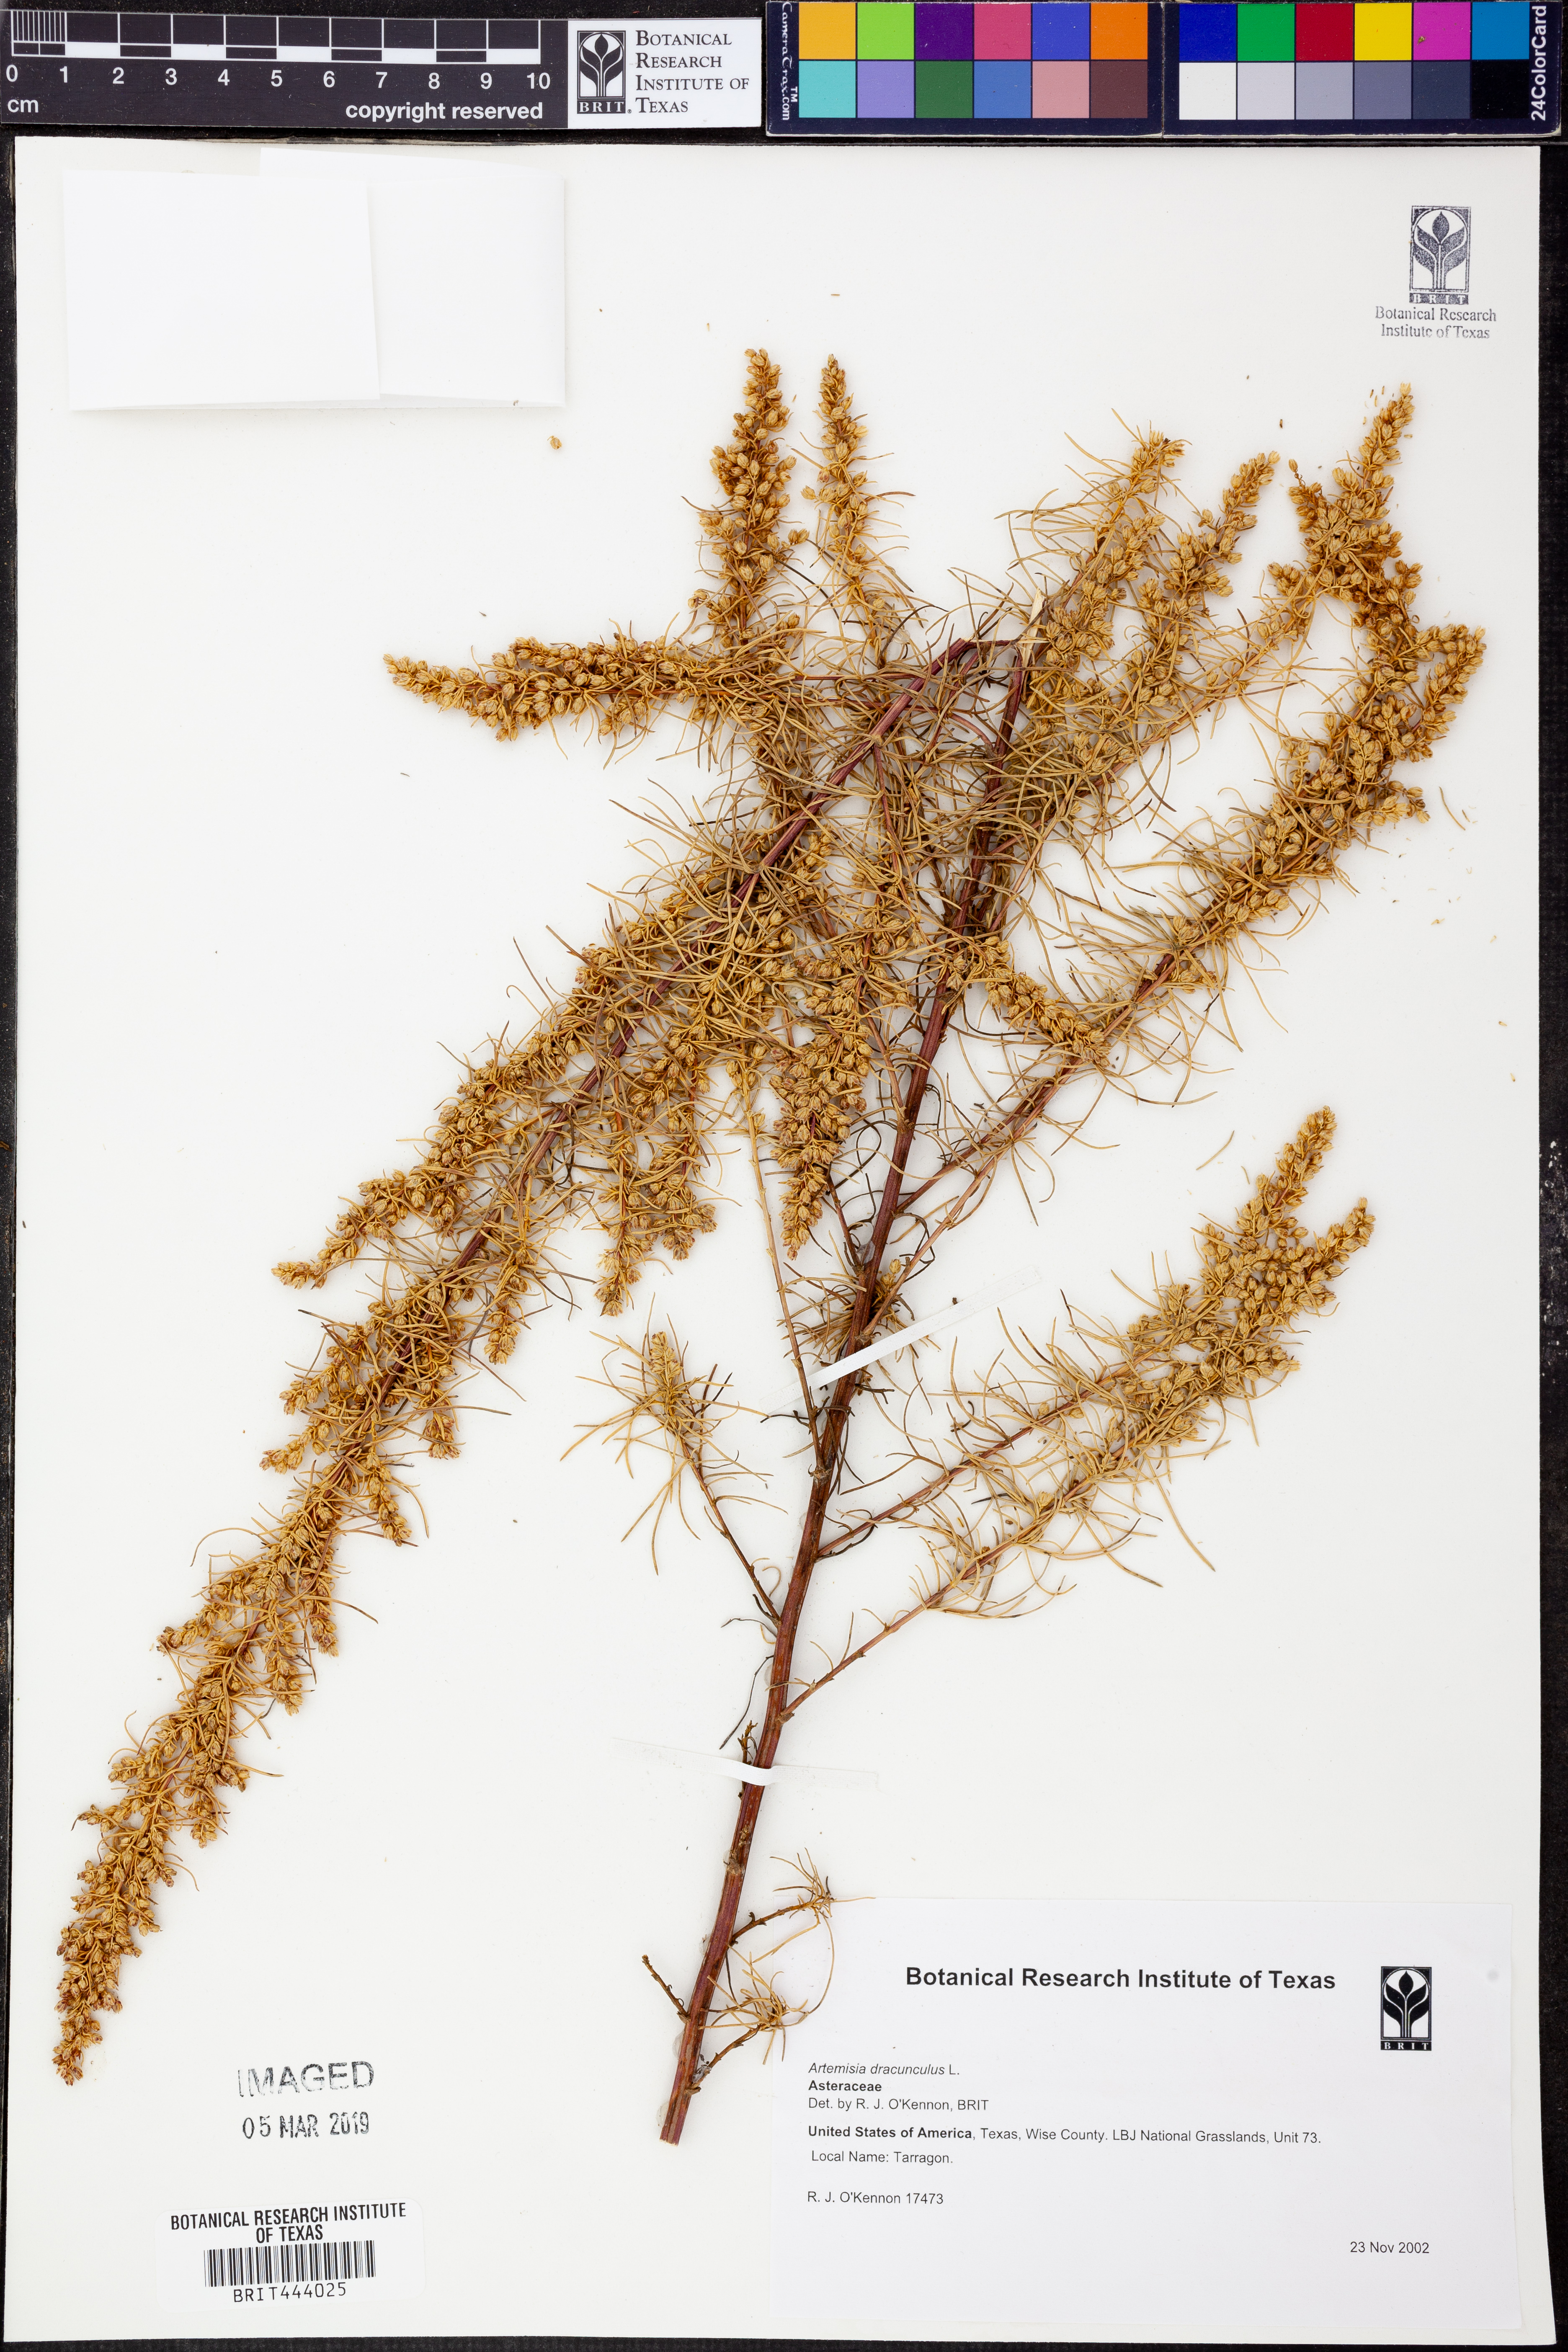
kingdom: Plantae
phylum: Tracheophyta
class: Magnoliopsida
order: Asterales
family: Asteraceae
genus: Artemisia
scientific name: Artemisia dracunculus
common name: Tarragon
